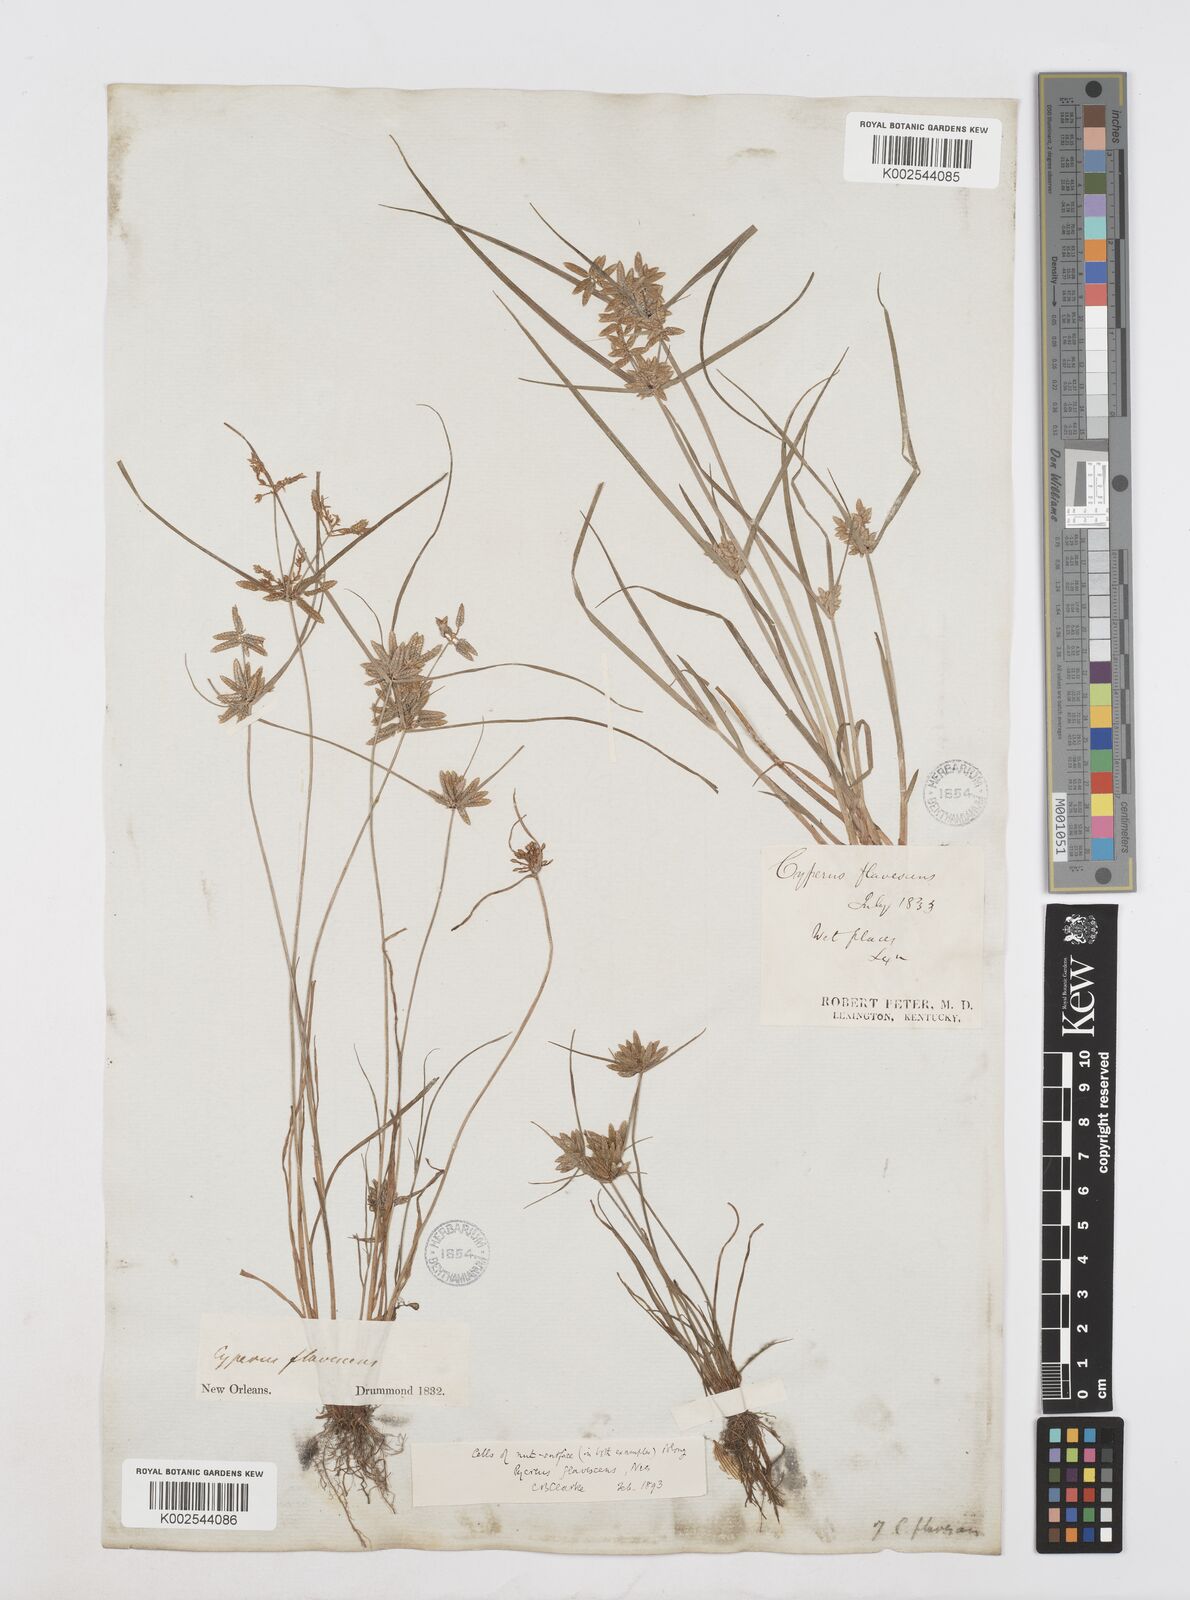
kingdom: Plantae
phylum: Tracheophyta
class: Liliopsida
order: Poales
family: Cyperaceae
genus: Cyperus
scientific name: Cyperus flavescens
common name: Yellow galingale
